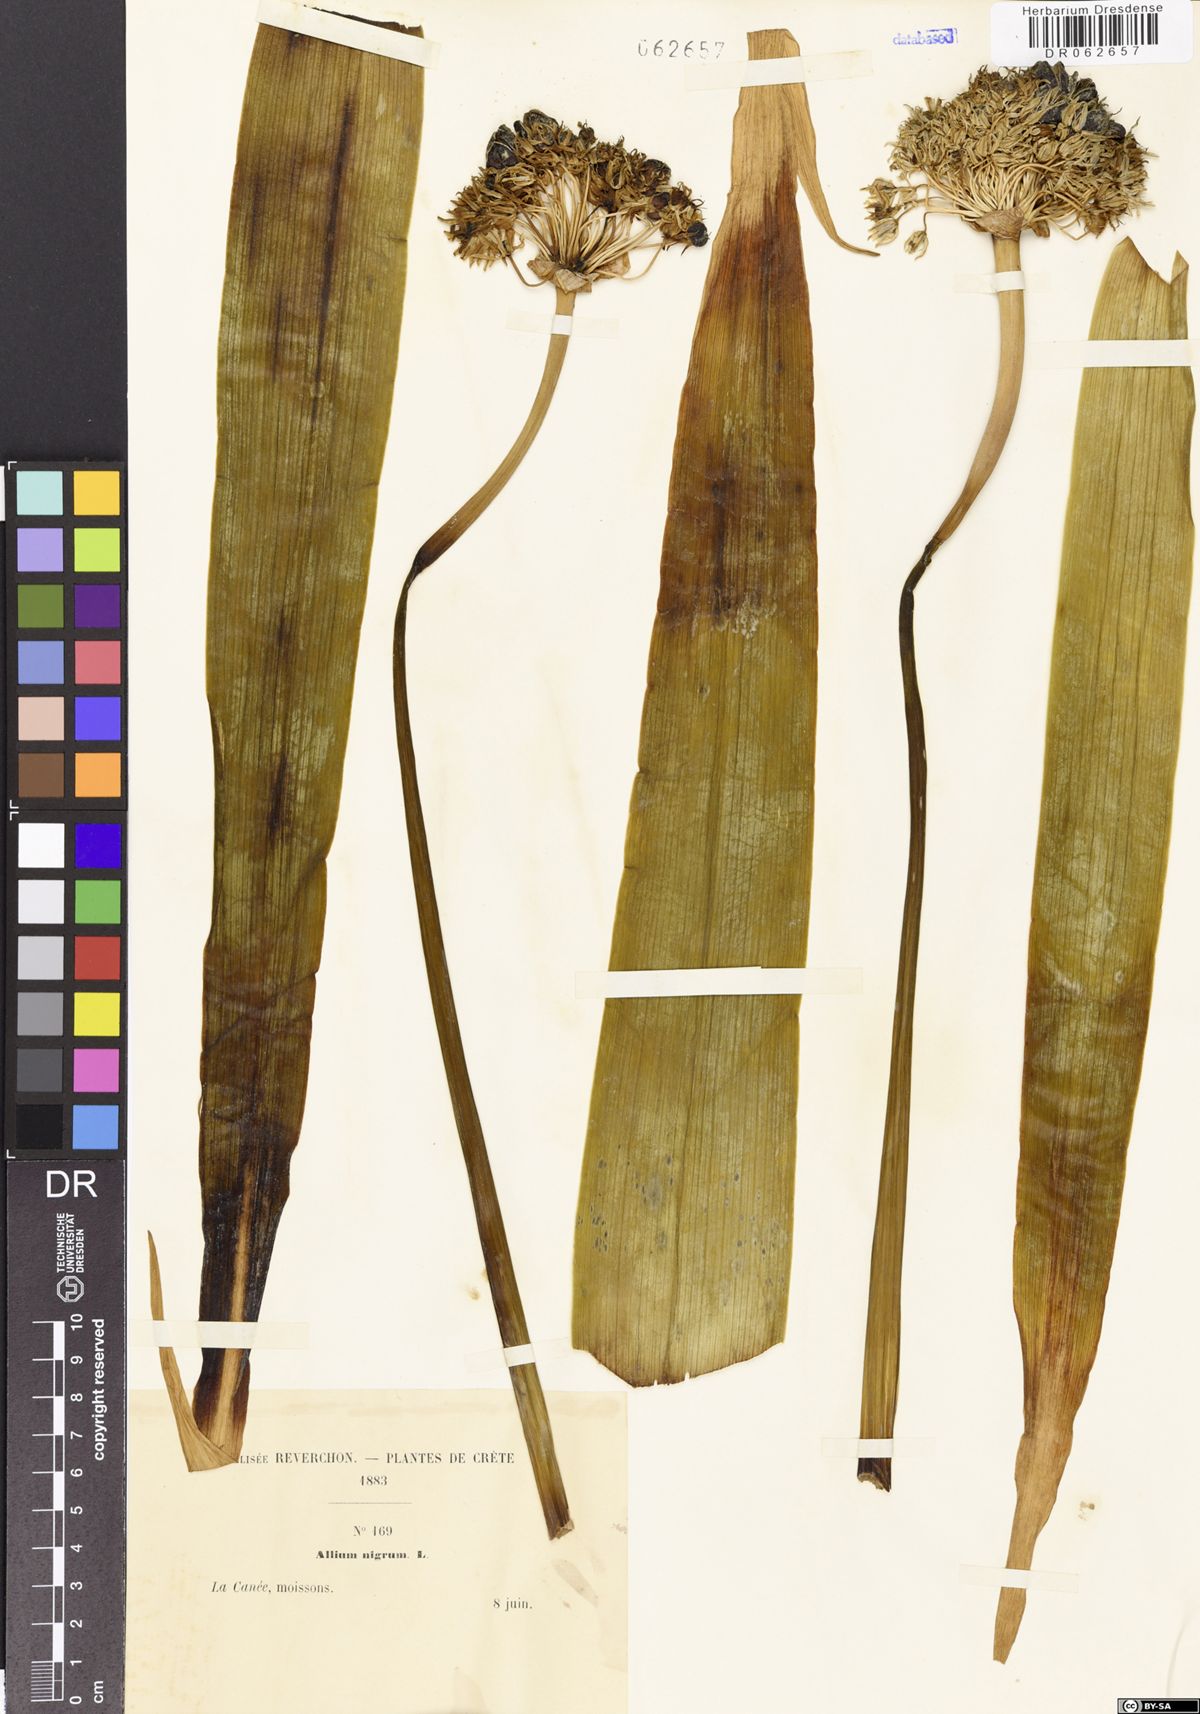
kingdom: Plantae
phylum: Tracheophyta
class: Liliopsida
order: Asparagales
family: Amaryllidaceae
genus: Allium
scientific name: Allium nigrum
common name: Black garlic
